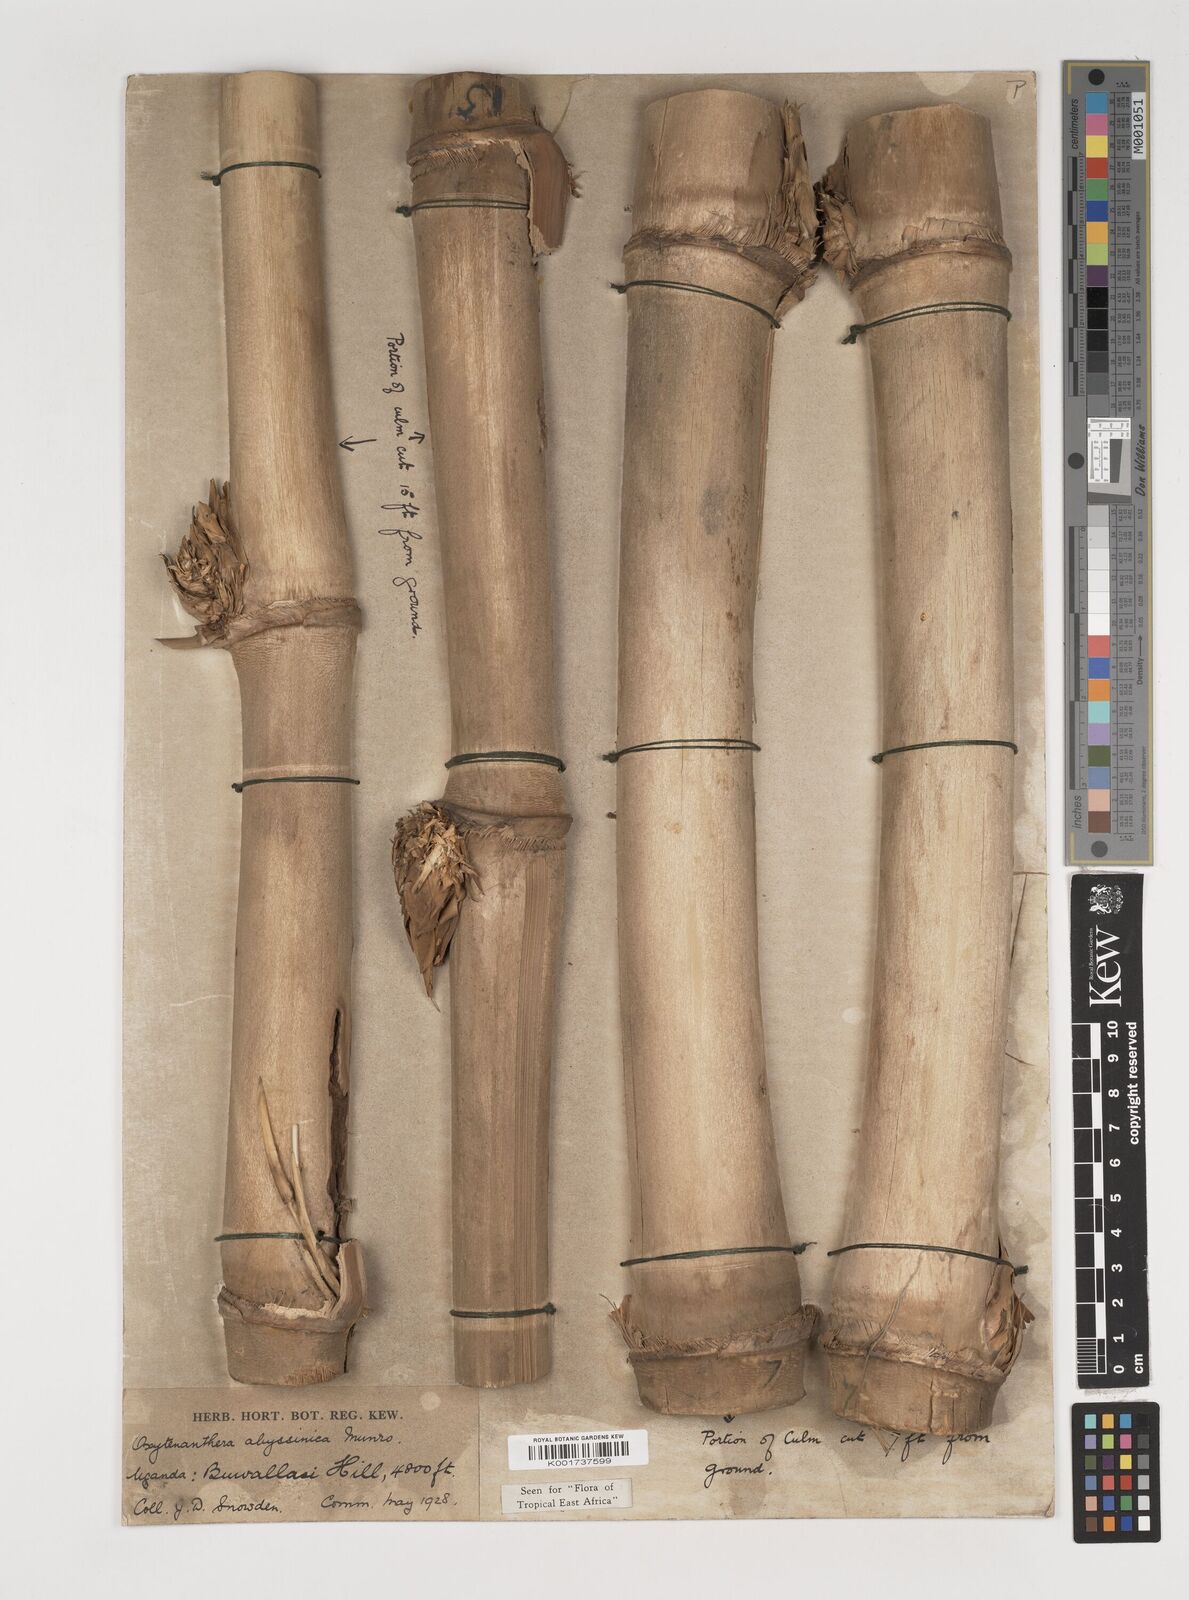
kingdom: Plantae
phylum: Tracheophyta
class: Liliopsida
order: Poales
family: Poaceae
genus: Oxytenanthera
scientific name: Oxytenanthera abyssinica
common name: Wine bamboo
